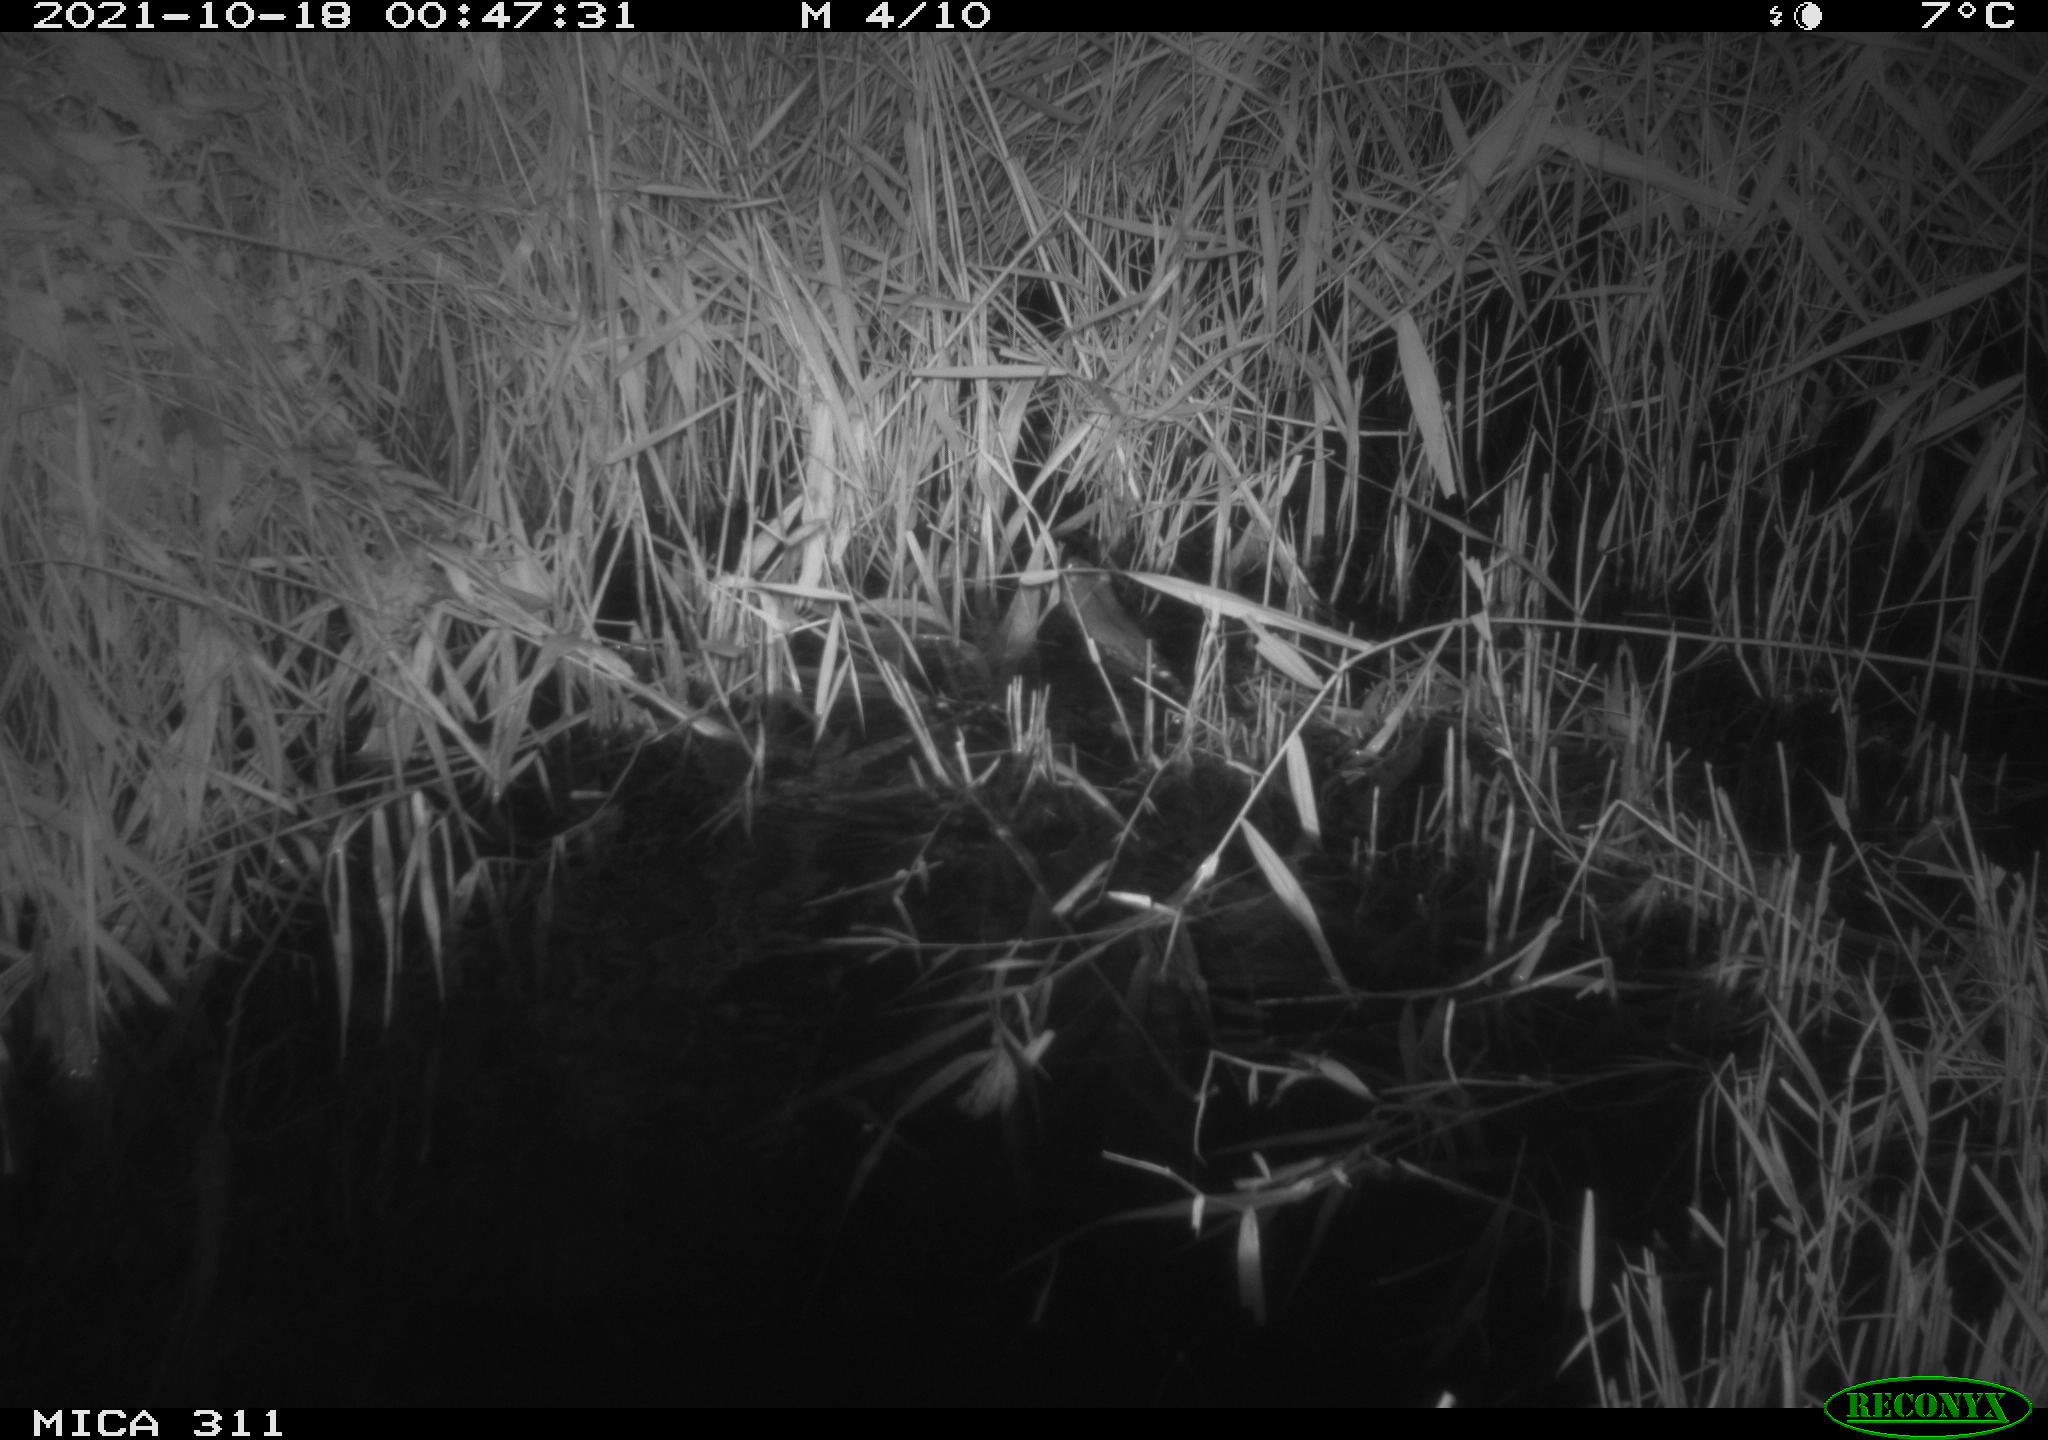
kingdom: Animalia
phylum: Chordata
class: Mammalia
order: Rodentia
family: Muridae
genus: Rattus
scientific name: Rattus norvegicus
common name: Brown rat
